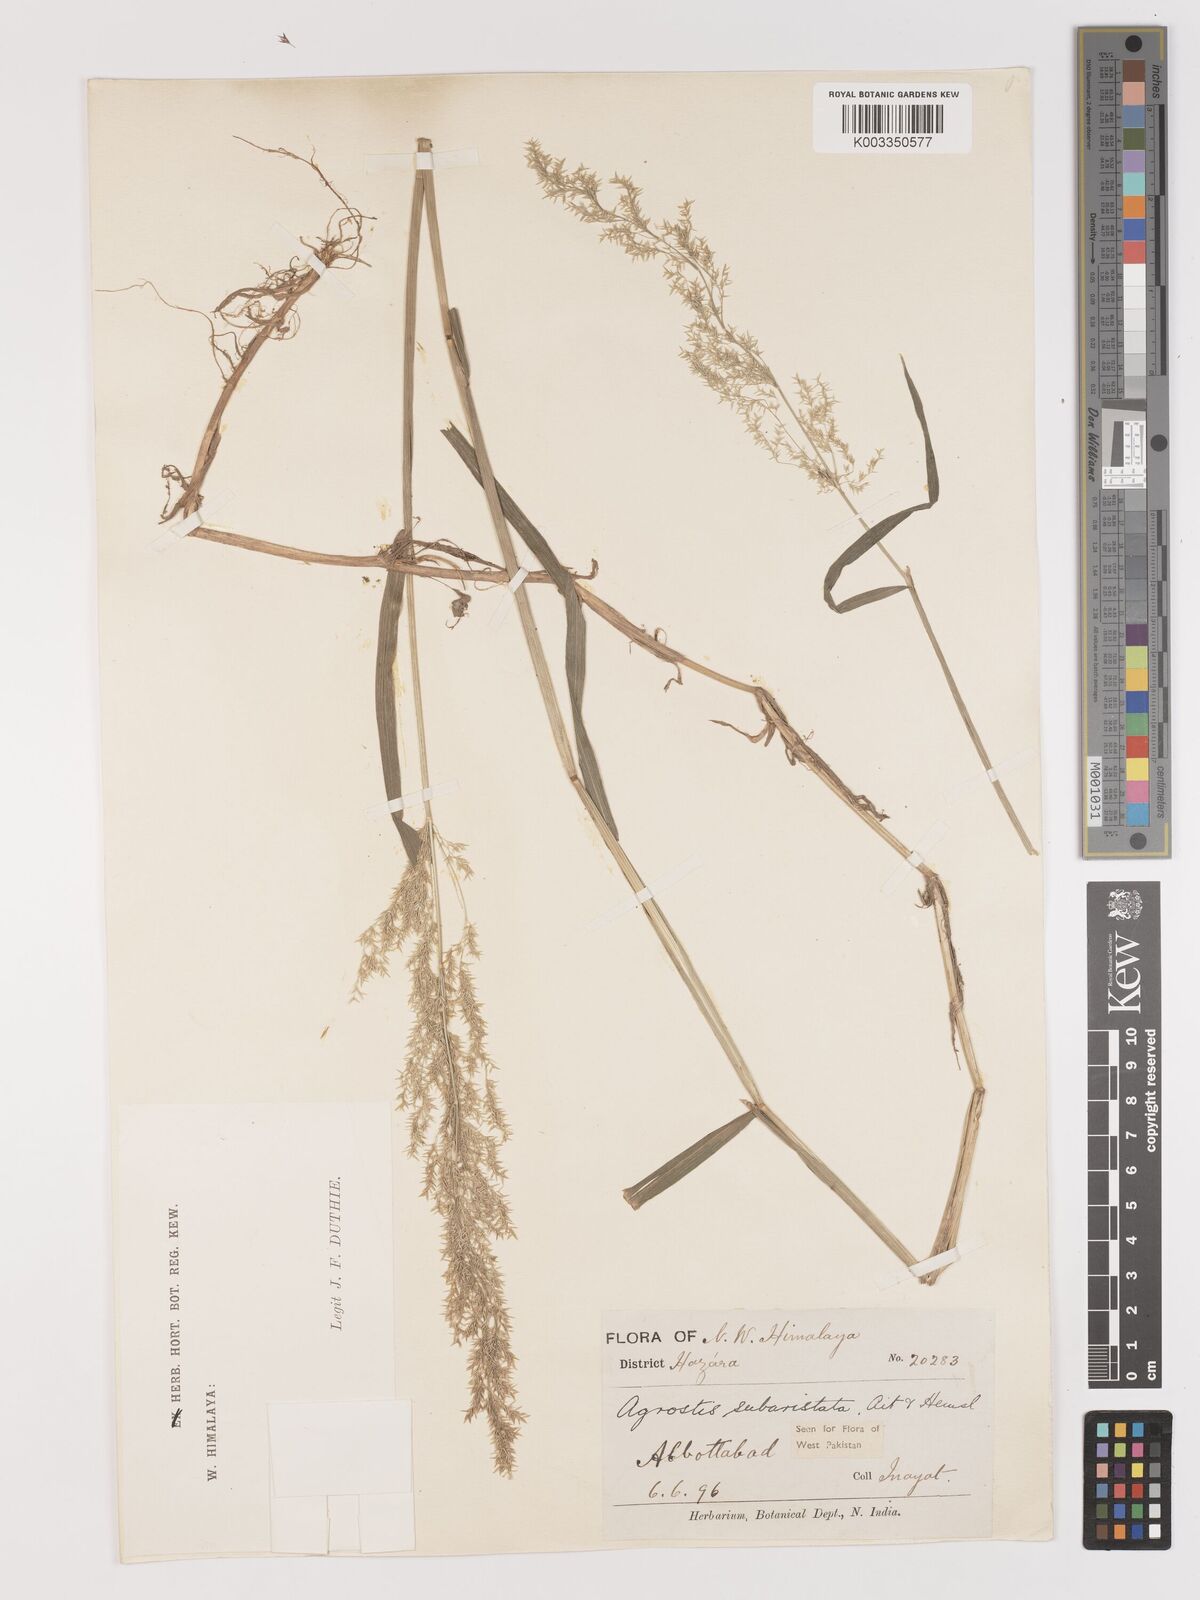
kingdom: Plantae
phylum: Tracheophyta
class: Liliopsida
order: Poales
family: Poaceae
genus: Agropogon
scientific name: Agropogon lutosus
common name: Coast agropogon
